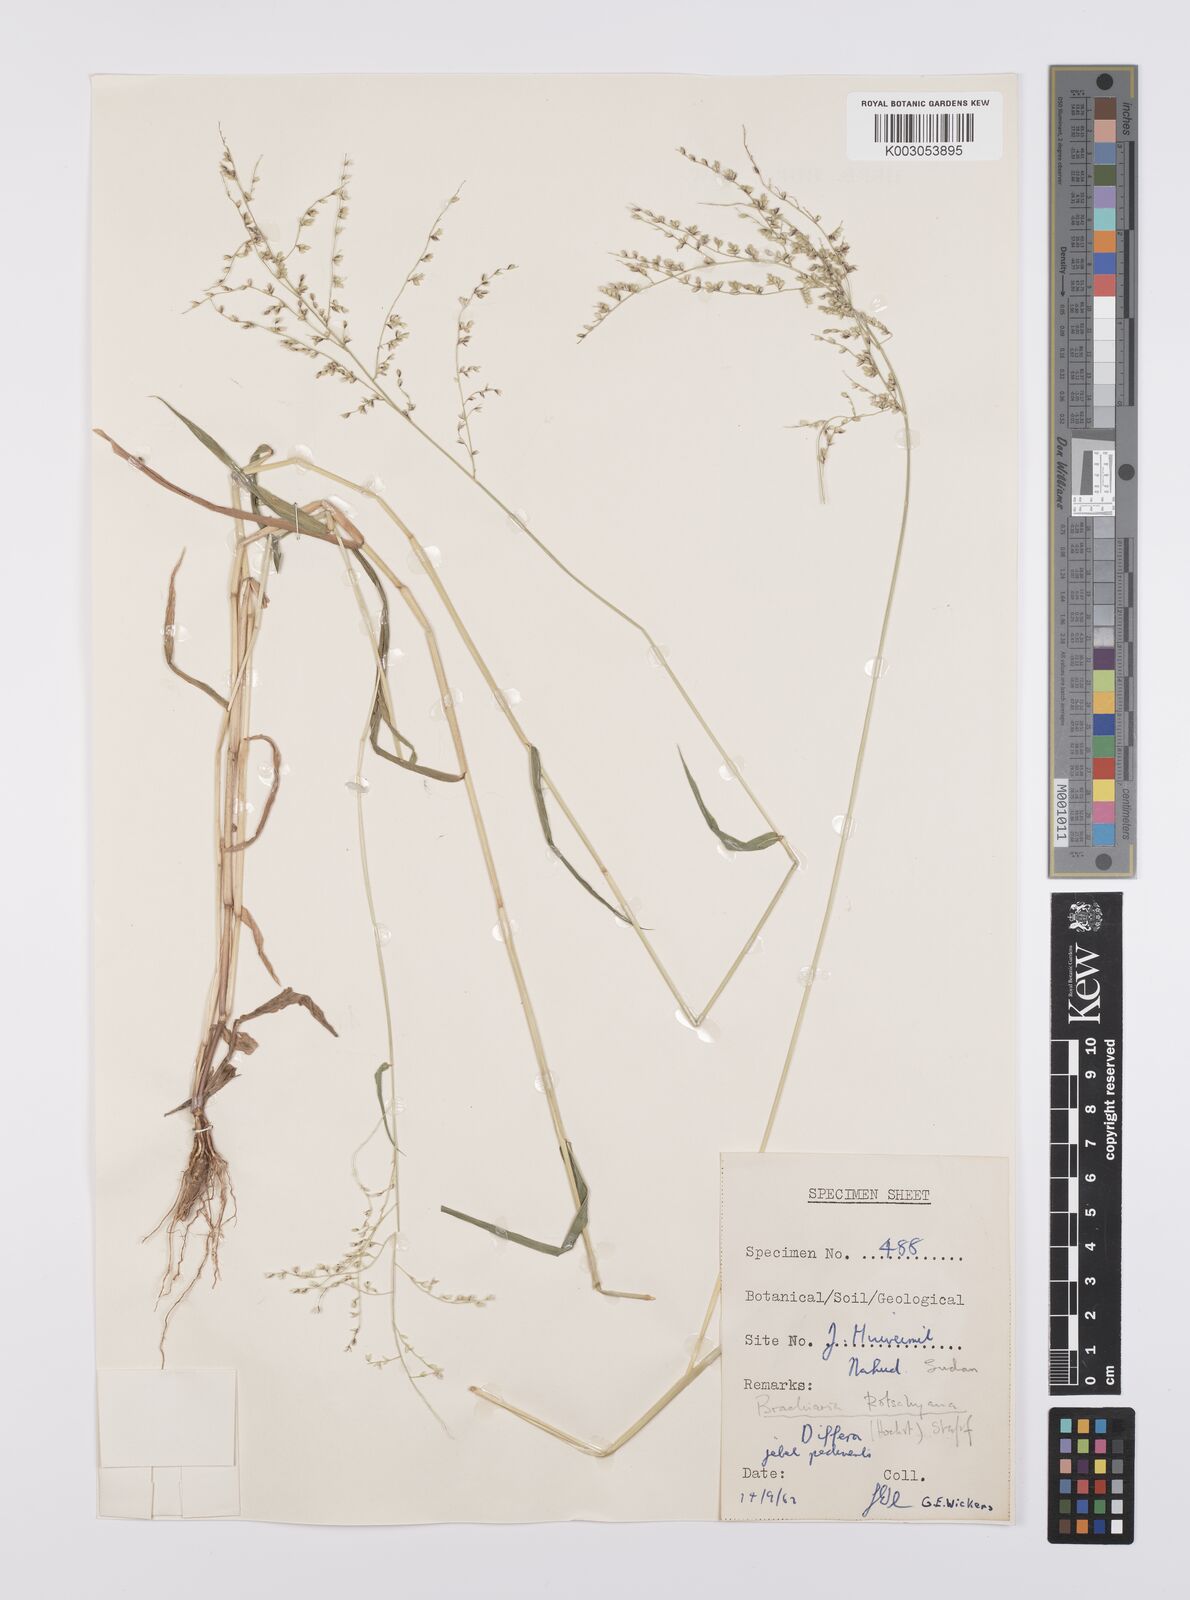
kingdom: Plantae
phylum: Tracheophyta
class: Liliopsida
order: Poales
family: Poaceae
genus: Urochloa
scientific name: Urochloa comata
